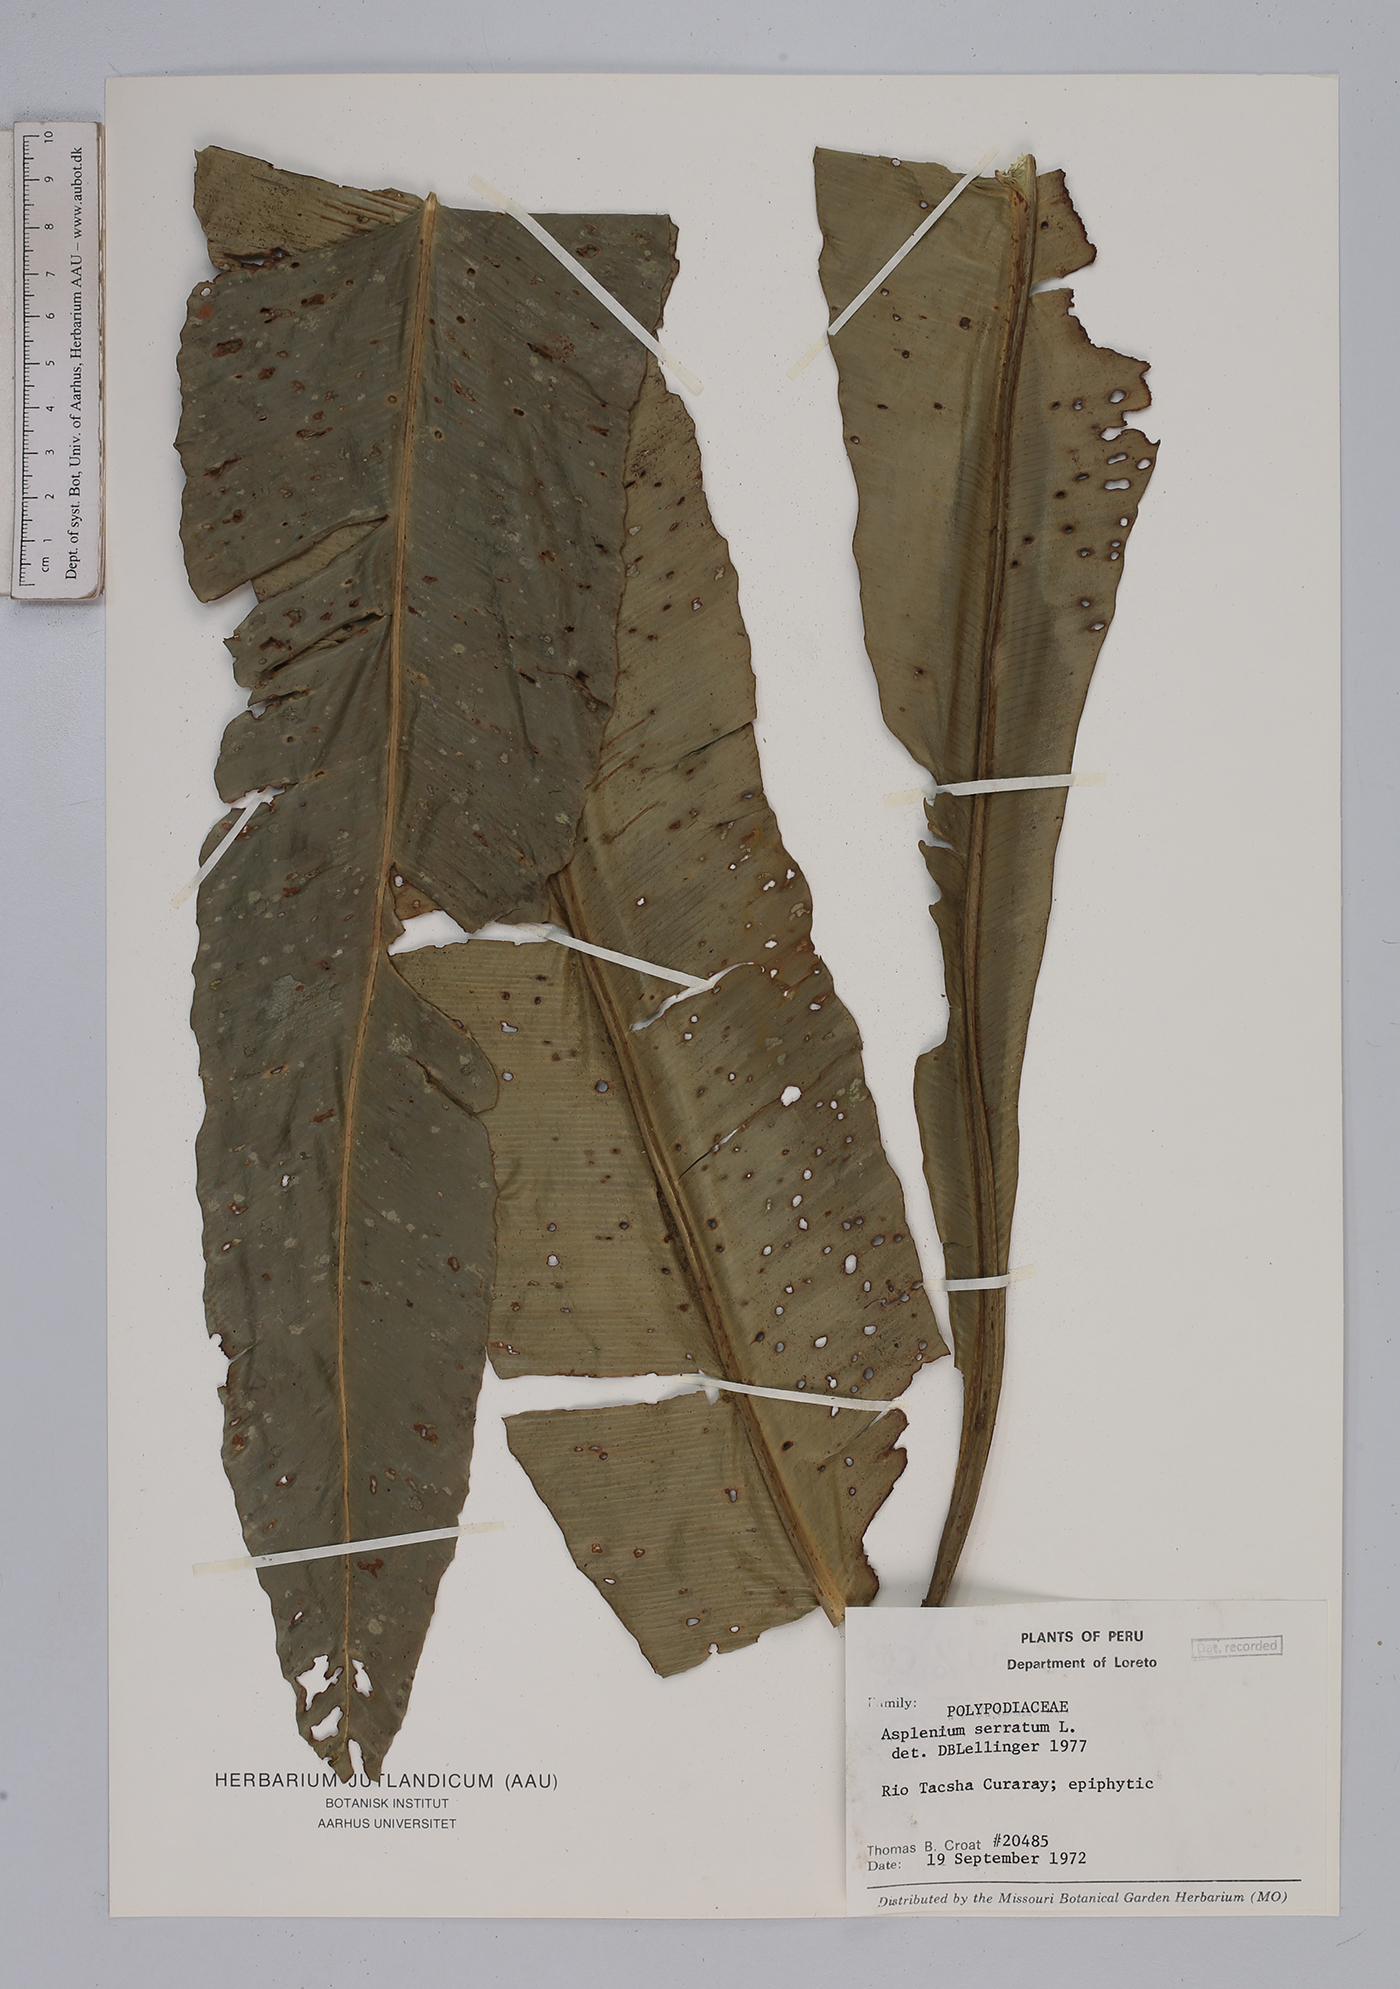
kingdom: Plantae
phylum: Tracheophyta
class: Polypodiopsida
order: Polypodiales
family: Aspleniaceae
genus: Asplenium
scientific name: Asplenium serratum
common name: Wild birdnest fern
